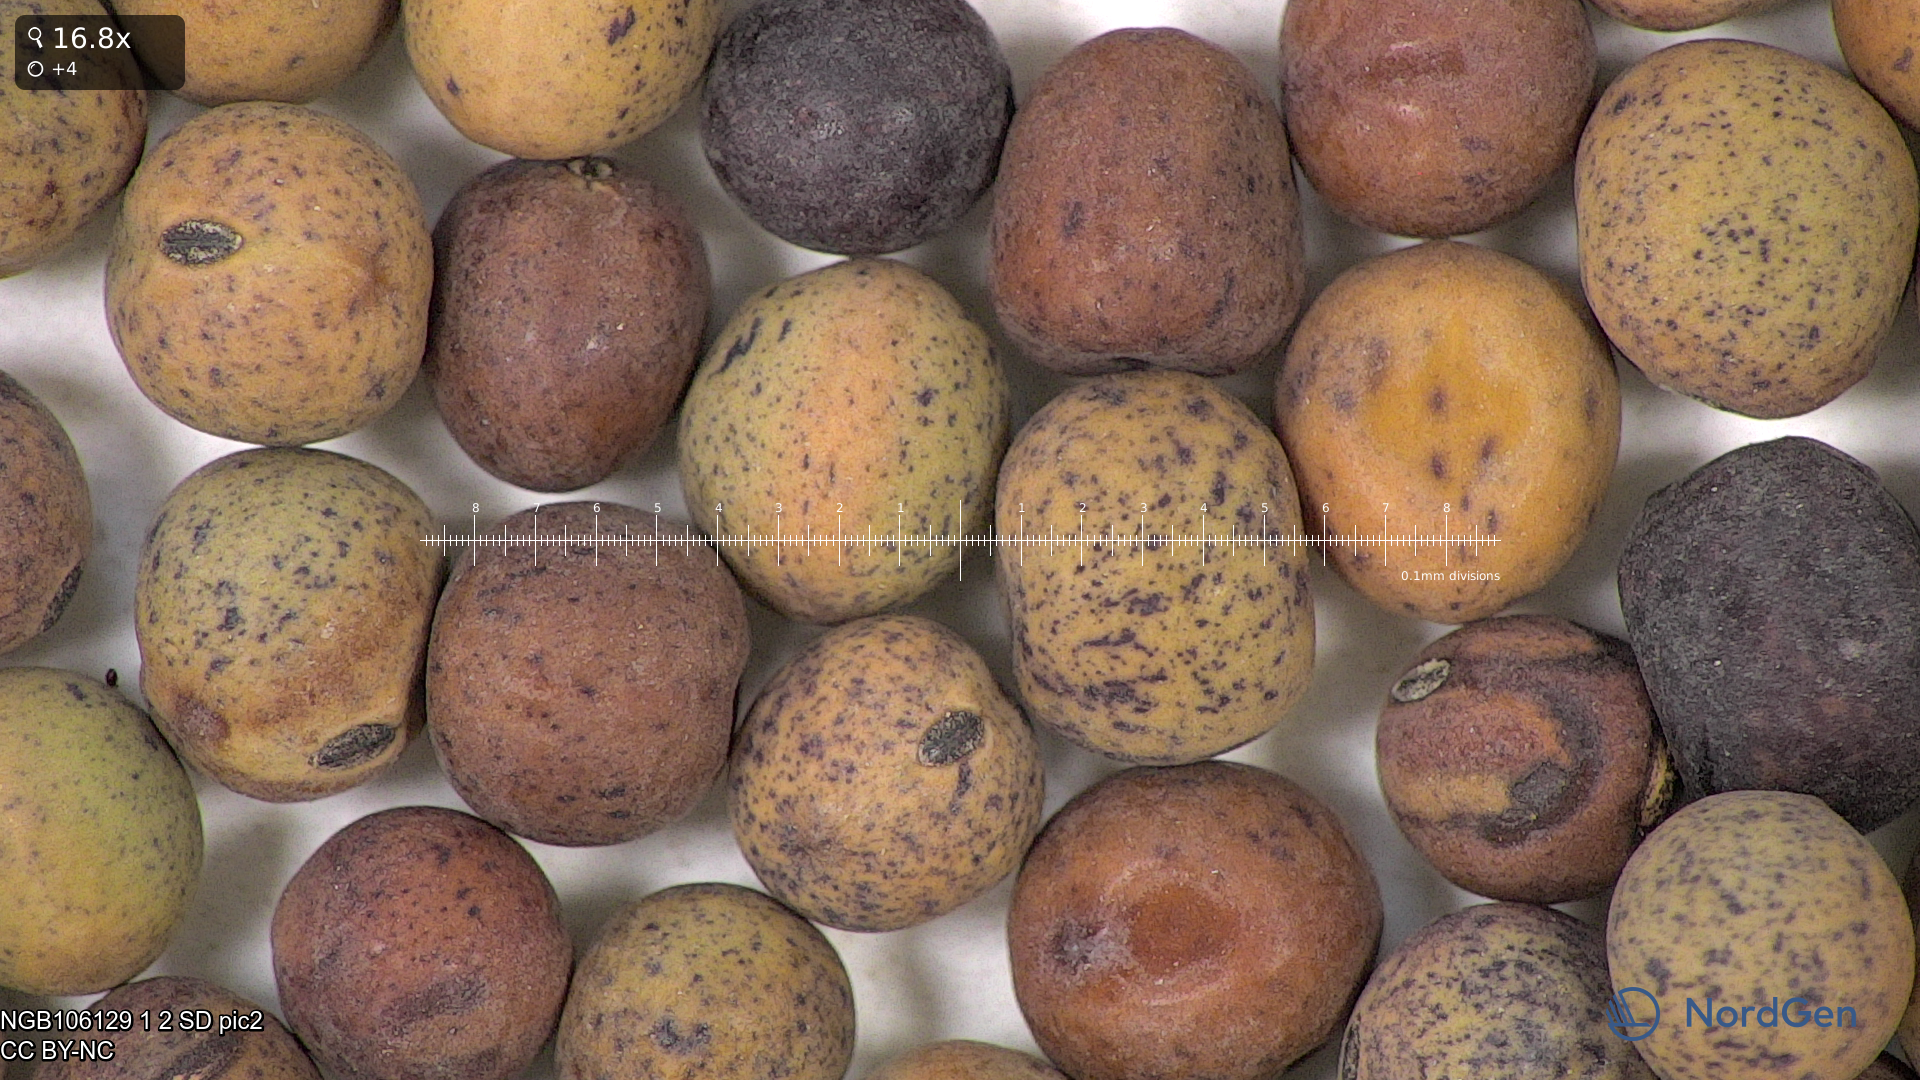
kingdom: Plantae
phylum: Tracheophyta
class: Magnoliopsida
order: Fabales
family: Fabaceae
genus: Lathyrus
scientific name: Lathyrus oleraceus
